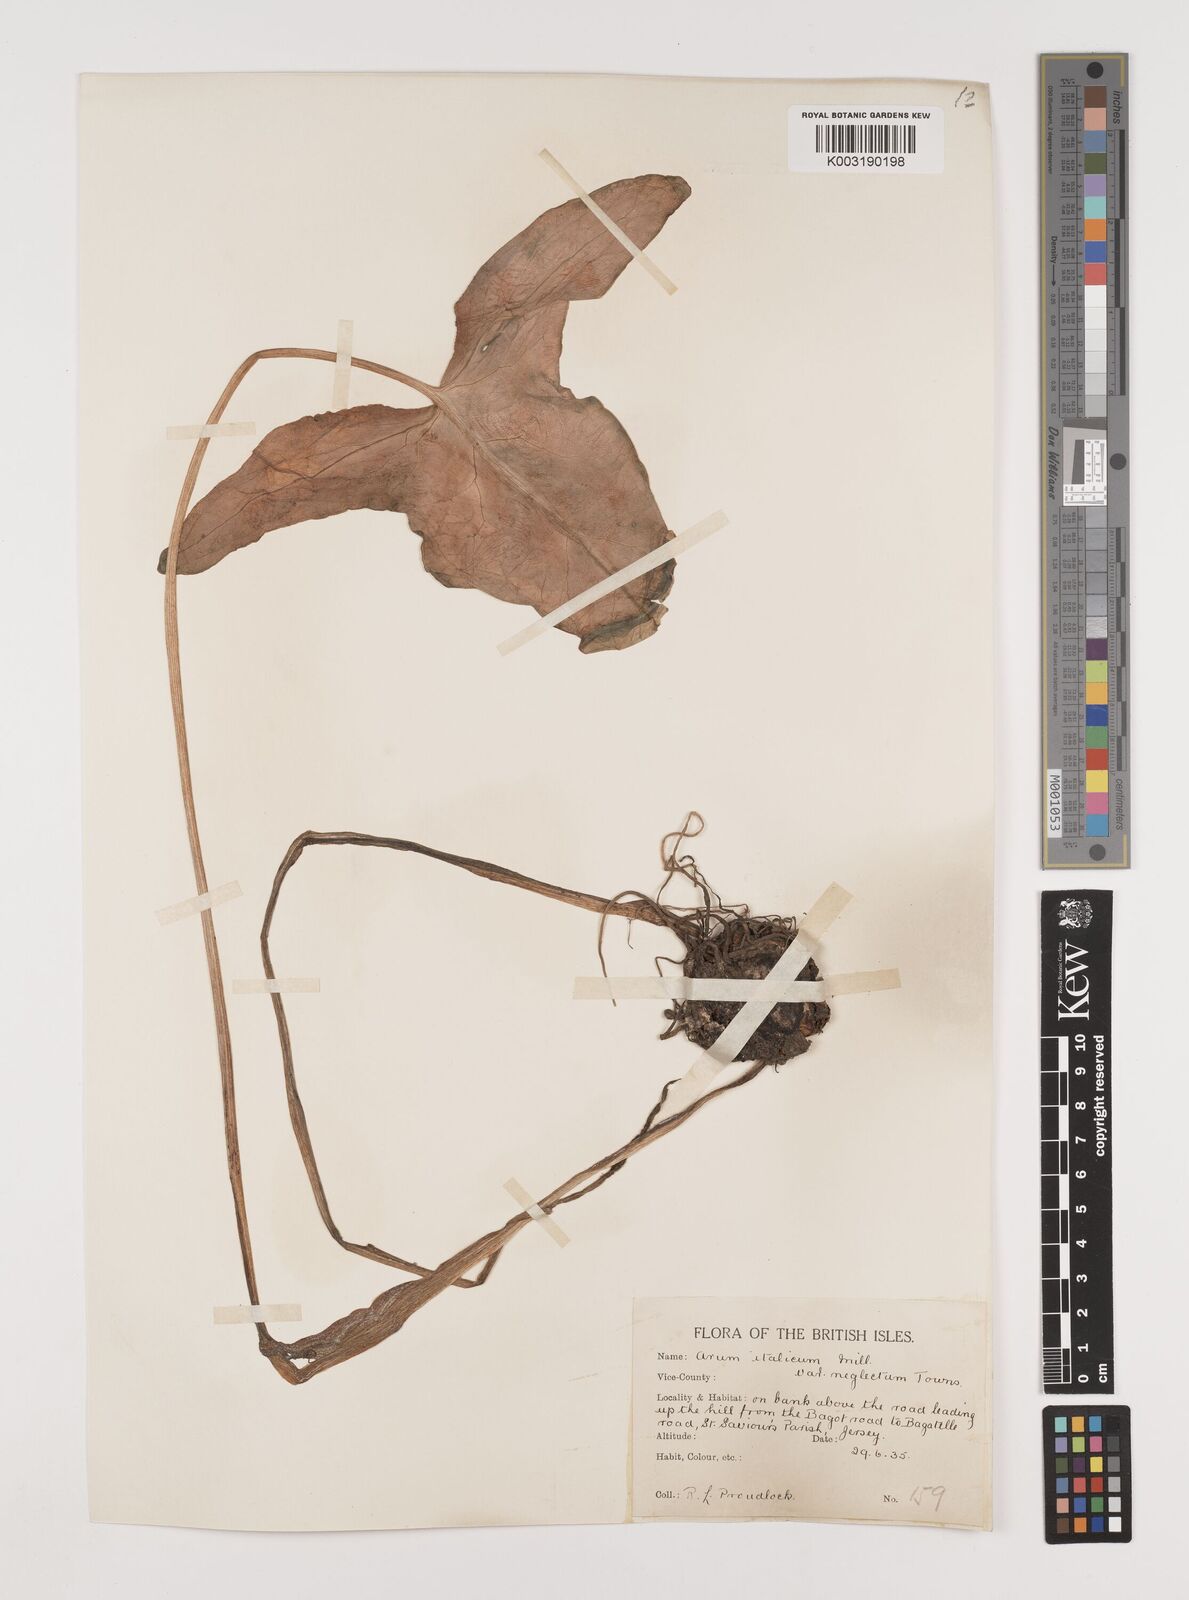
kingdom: Plantae
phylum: Tracheophyta
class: Liliopsida
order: Alismatales
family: Araceae
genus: Arum
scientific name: Arum italicum
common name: Italian lords-and-ladies
